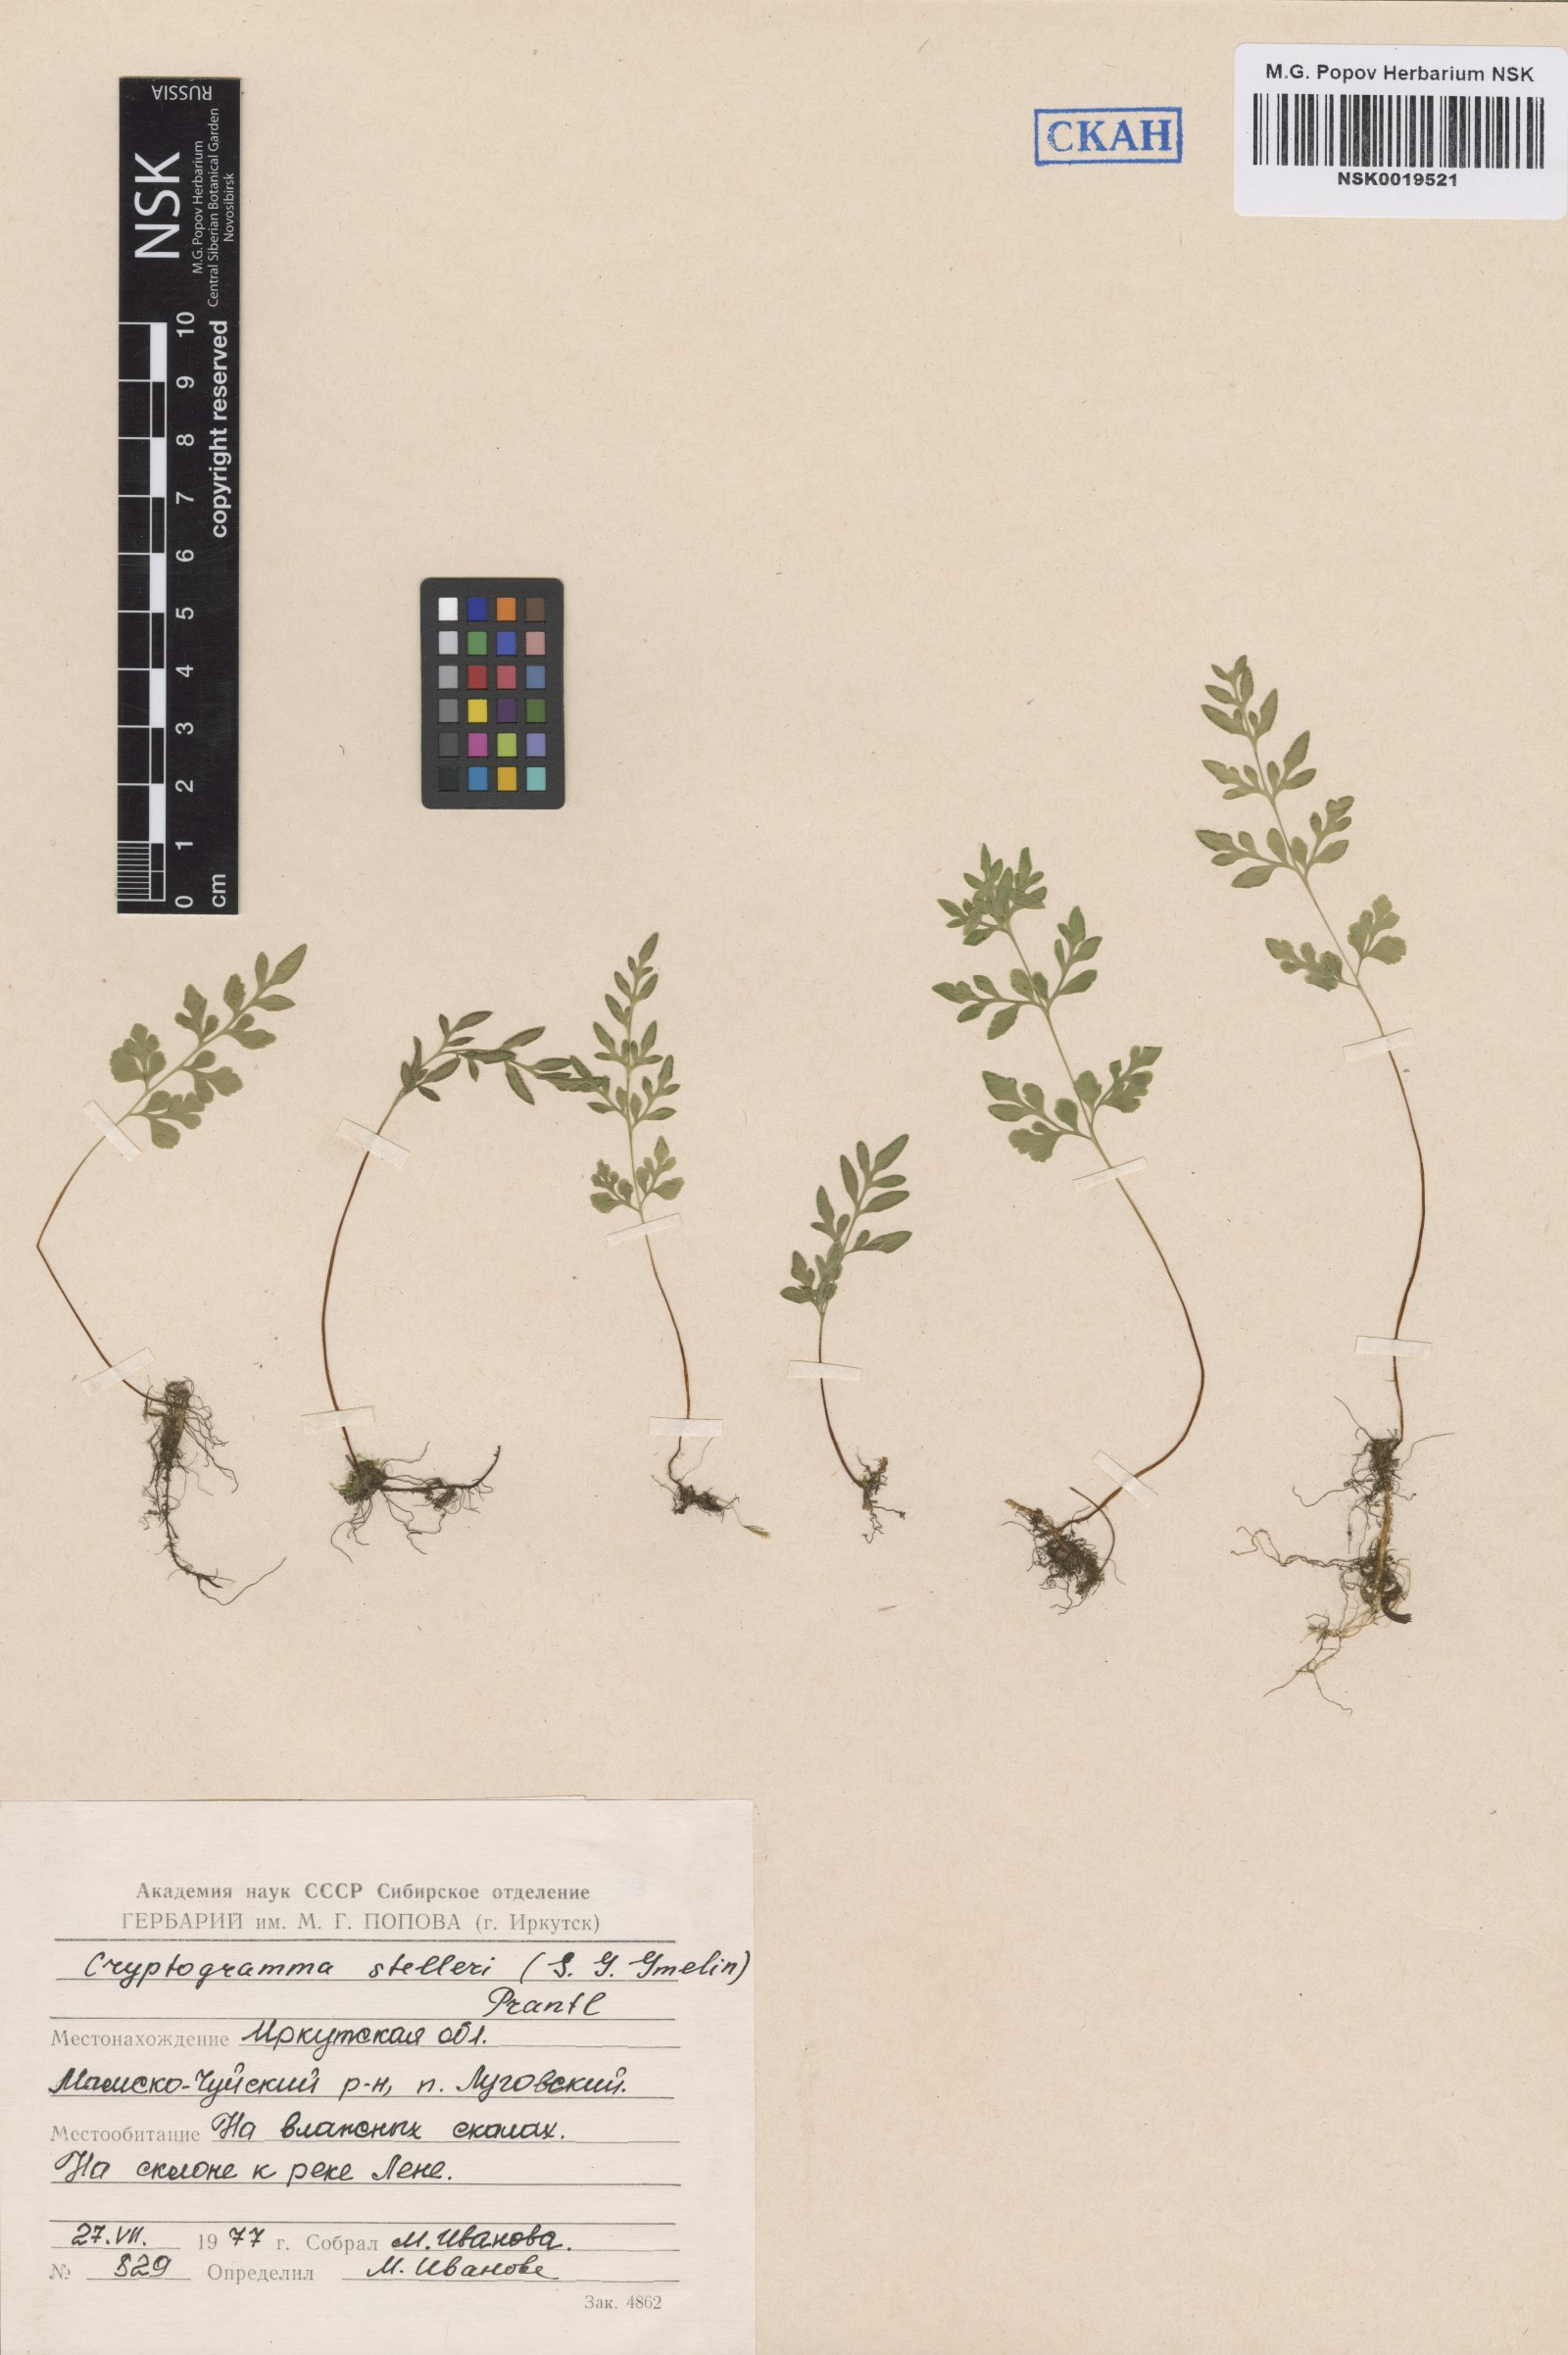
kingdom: Plantae
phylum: Tracheophyta
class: Polypodiopsida
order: Polypodiales
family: Pteridaceae
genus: Cryptogramma
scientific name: Cryptogramma stelleri
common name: Cliff-brake
